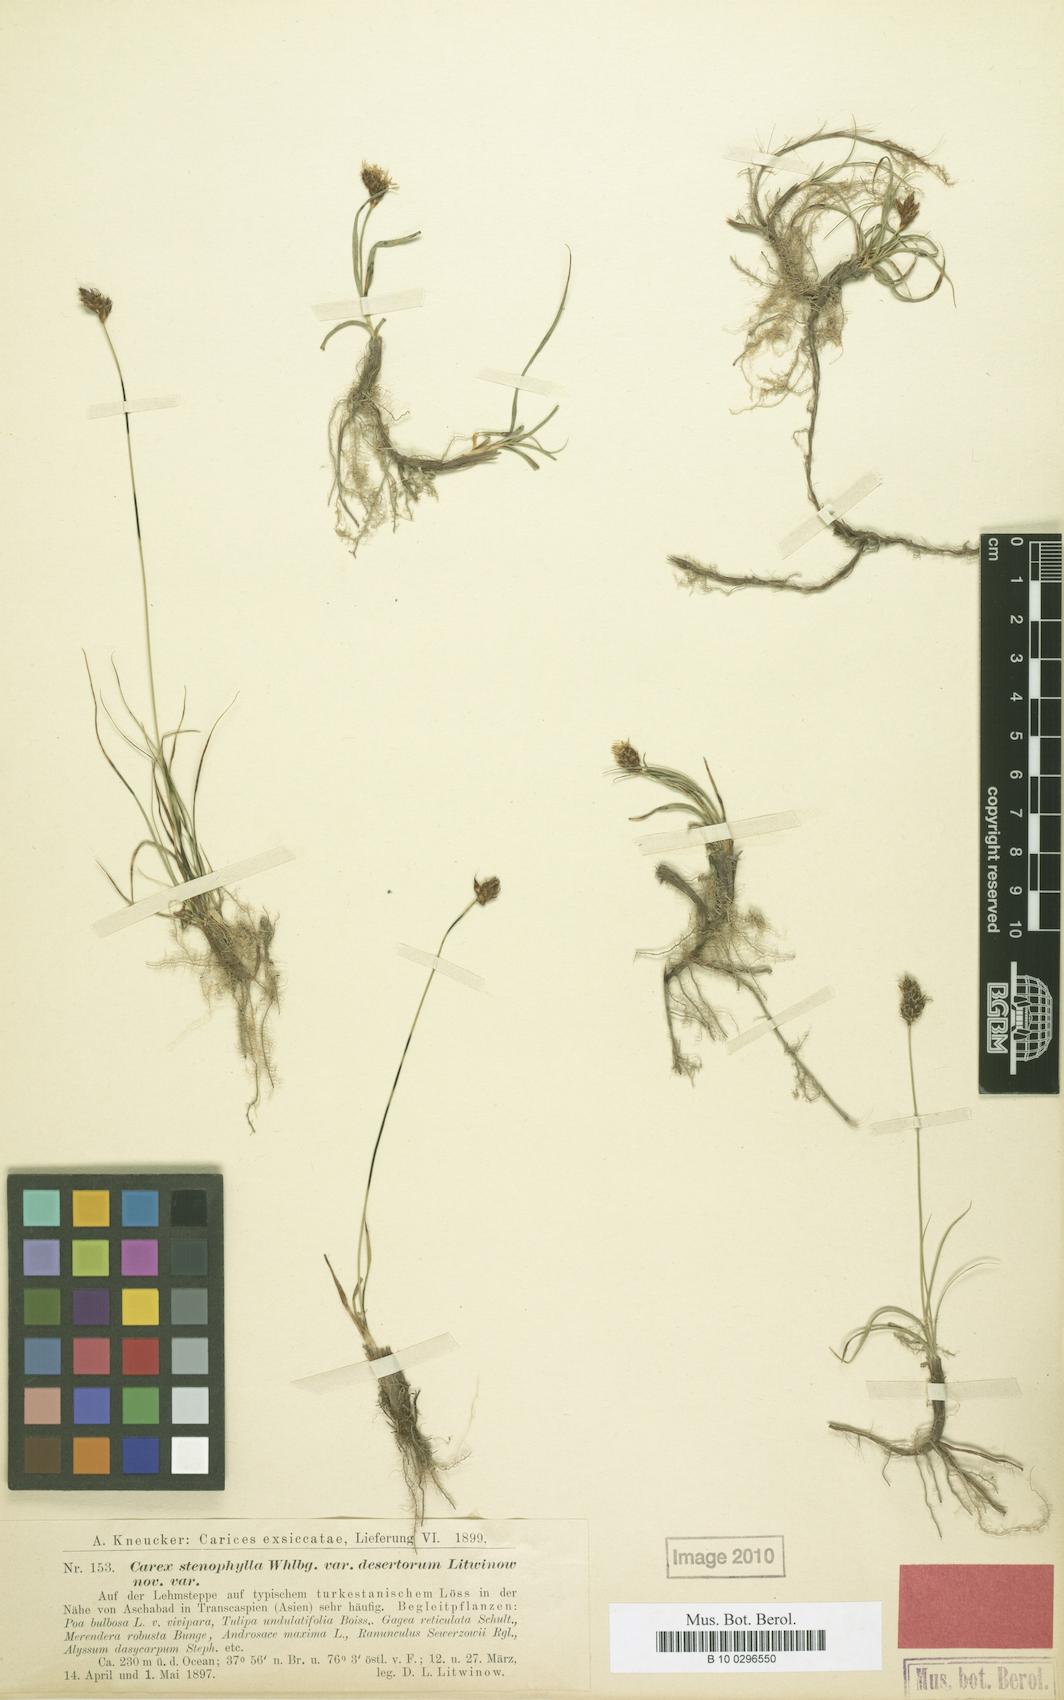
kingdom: Plantae
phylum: Tracheophyta
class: Liliopsida
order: Poales
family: Cyperaceae
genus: Carex
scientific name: Carex pachystylis
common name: Thick-stem sedge
